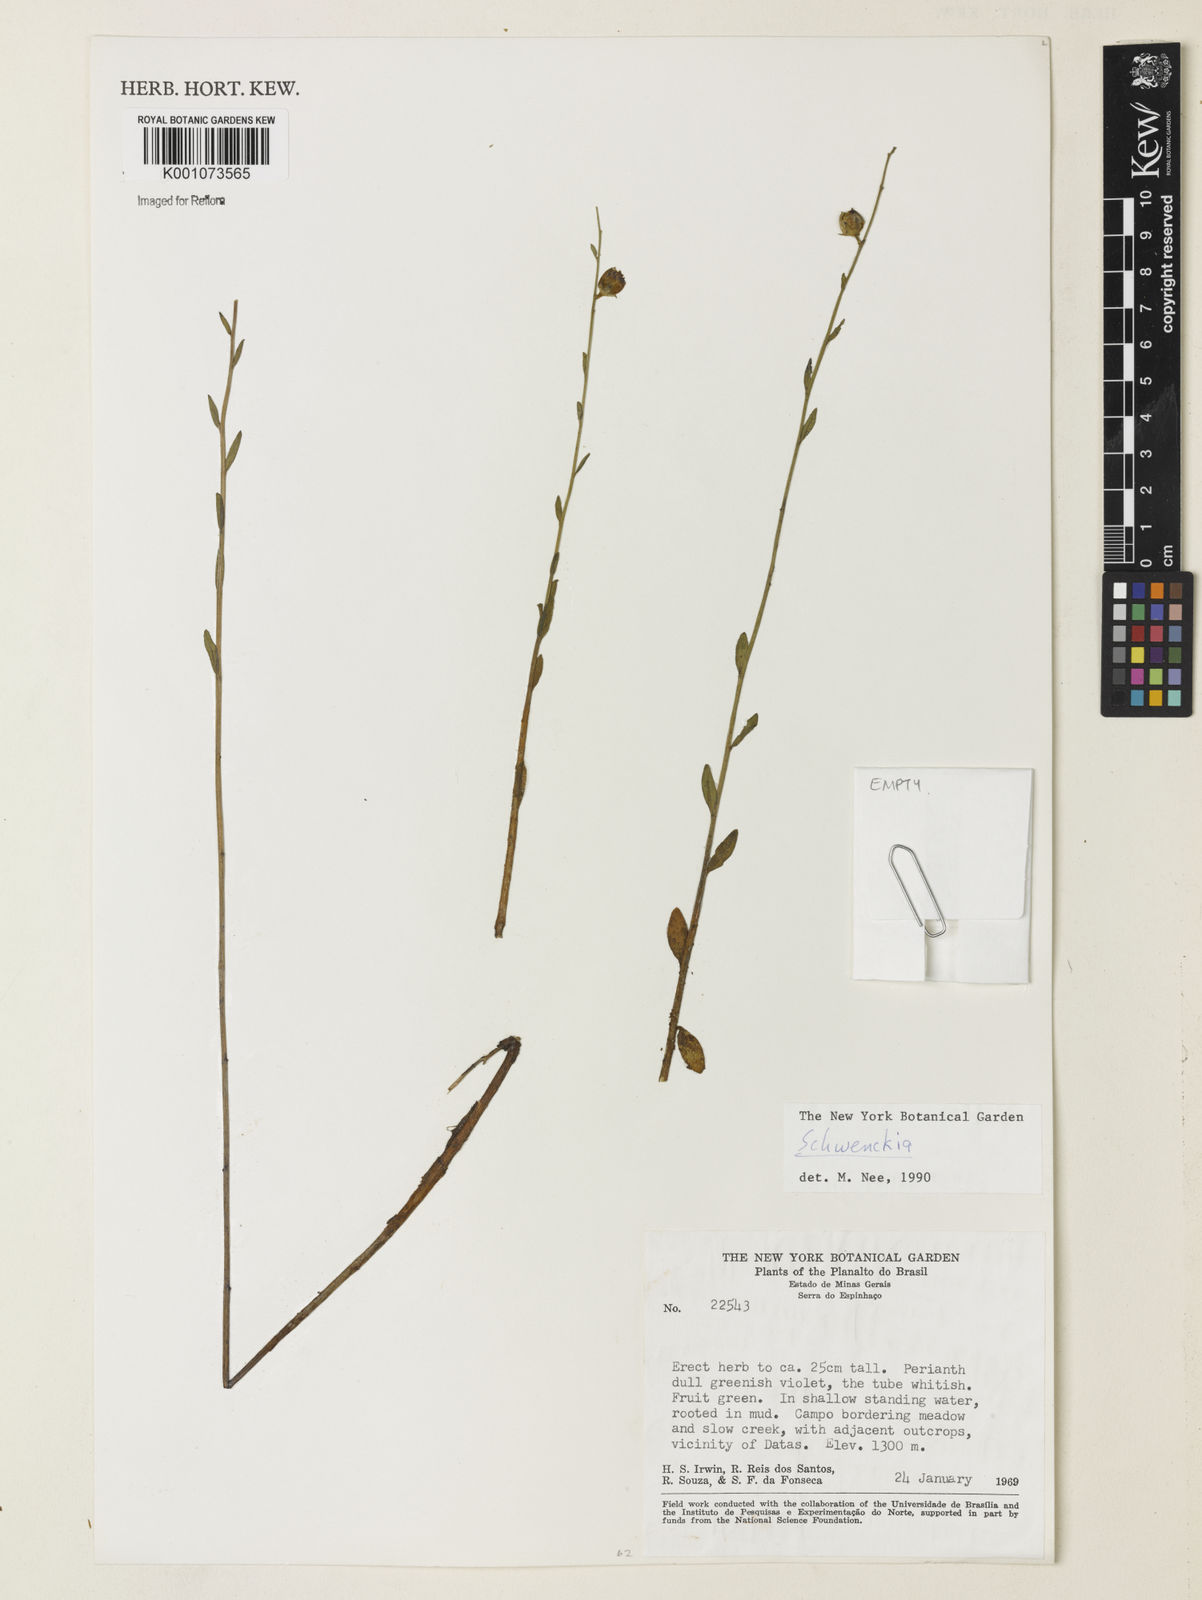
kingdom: Plantae
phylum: Tracheophyta
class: Magnoliopsida
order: Solanales
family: Solanaceae
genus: Schwenckia
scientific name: Schwenckia
